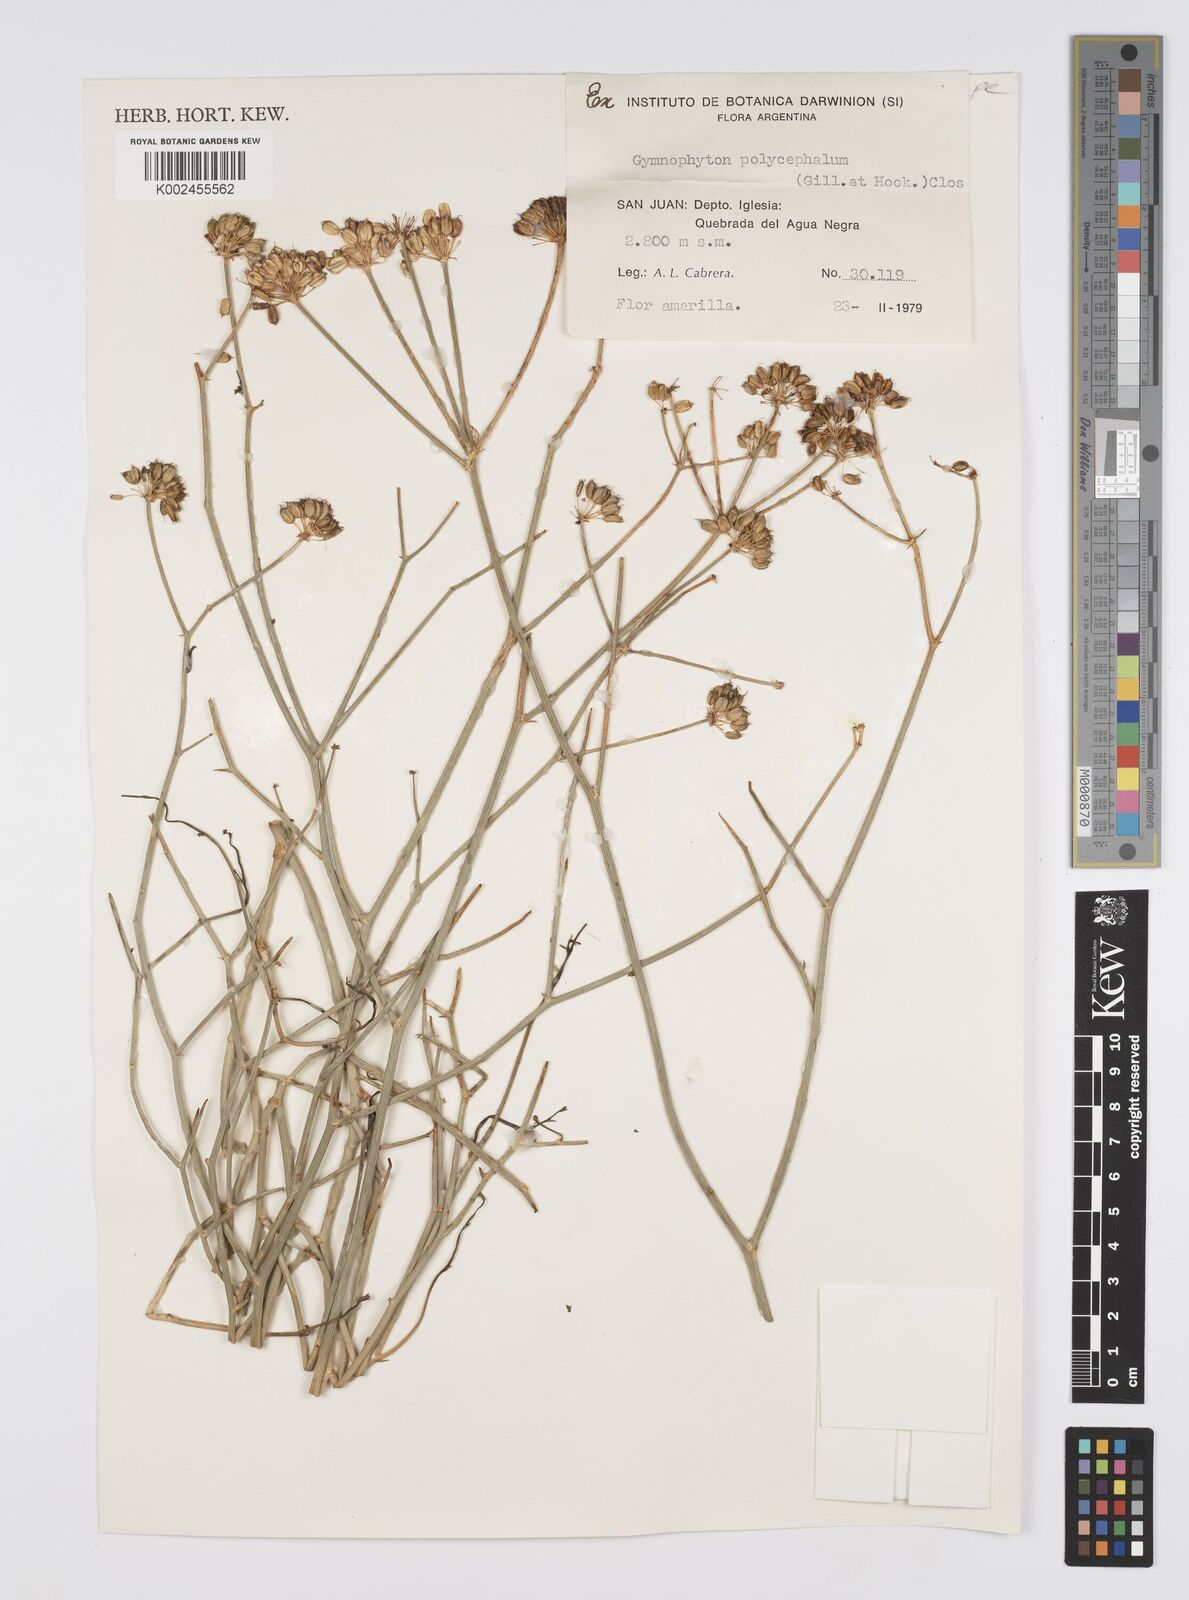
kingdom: Plantae
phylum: Tracheophyta
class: Magnoliopsida
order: Apiales
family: Apiaceae
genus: Gymnophyton
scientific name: Gymnophyton polycephalum
